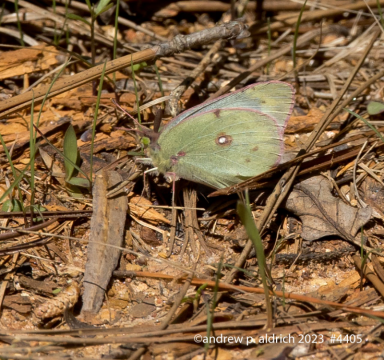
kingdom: Animalia
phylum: Arthropoda
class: Insecta
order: Lepidoptera
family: Pieridae
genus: Colias
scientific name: Colias eurytheme
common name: Orange Sulphur
